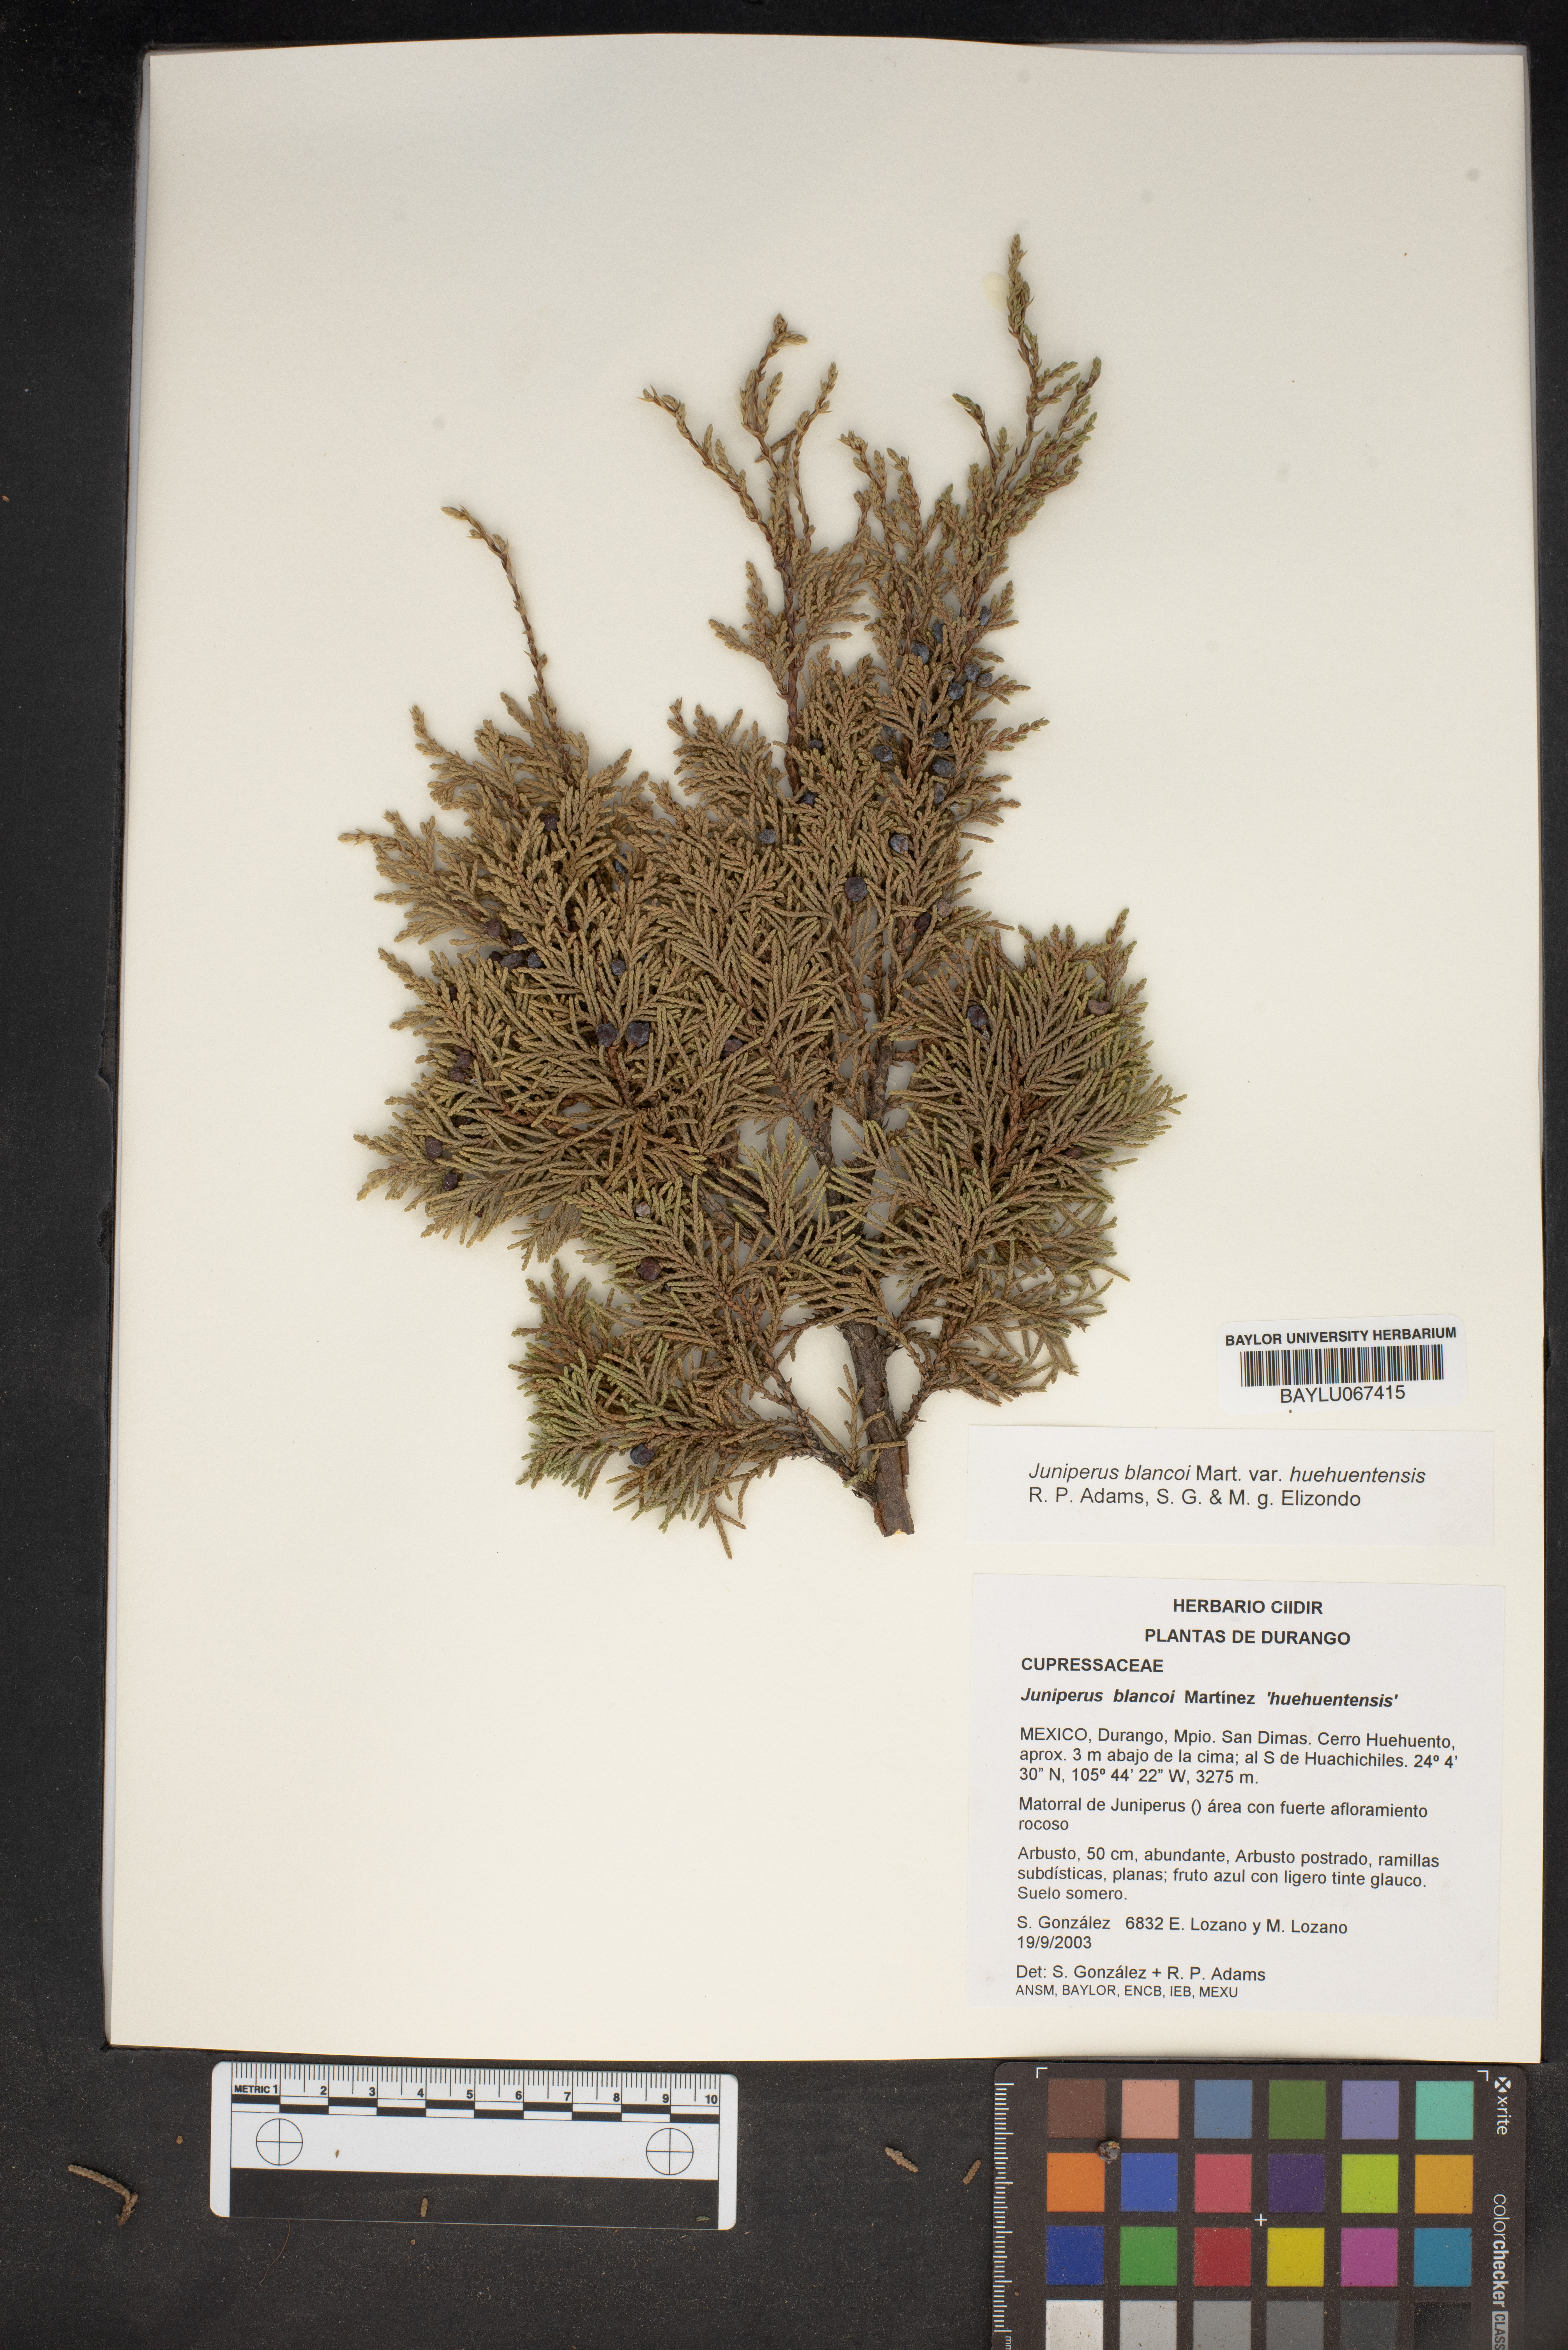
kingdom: Plantae
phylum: Tracheophyta
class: Pinopsida
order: Pinales
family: Cupressaceae
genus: Juniperus
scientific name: Juniperus blancoi
